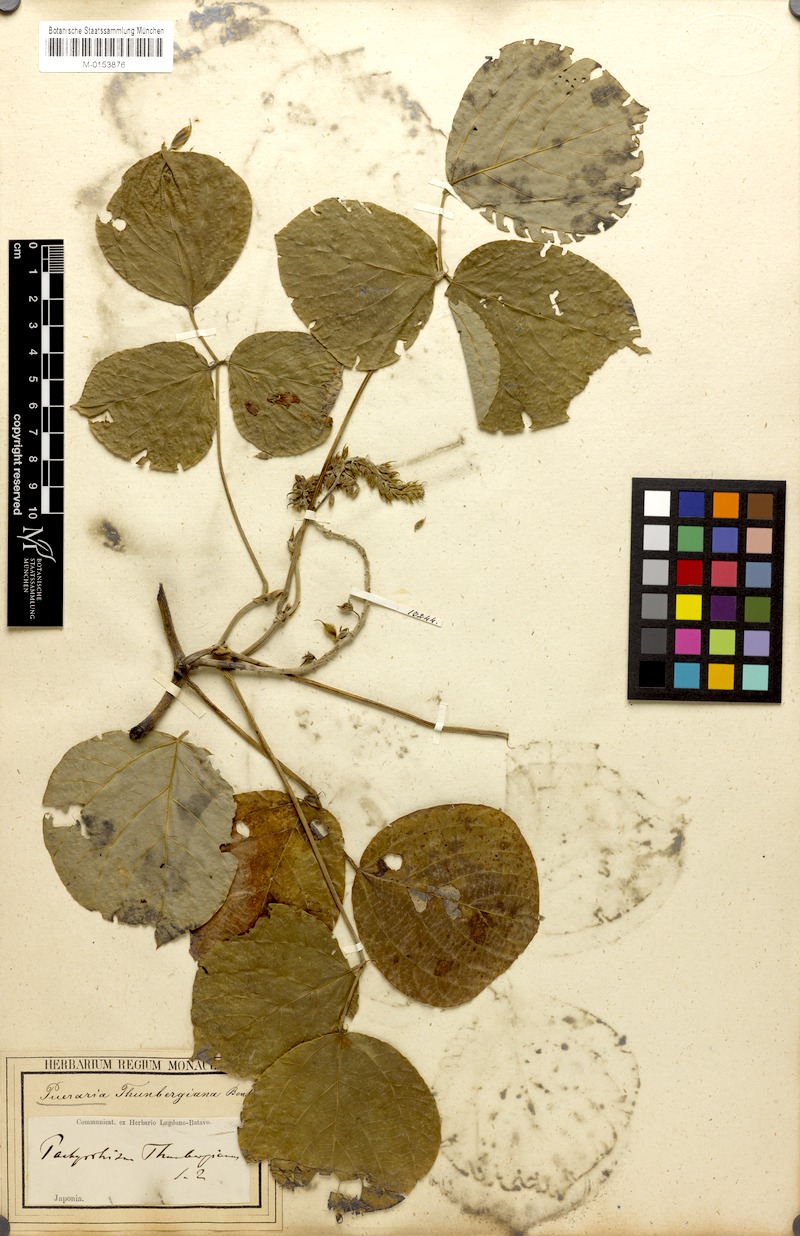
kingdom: Plantae
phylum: Tracheophyta
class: Magnoliopsida
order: Fabales
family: Fabaceae
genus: Pueraria
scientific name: Pueraria montana
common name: Kudzu
